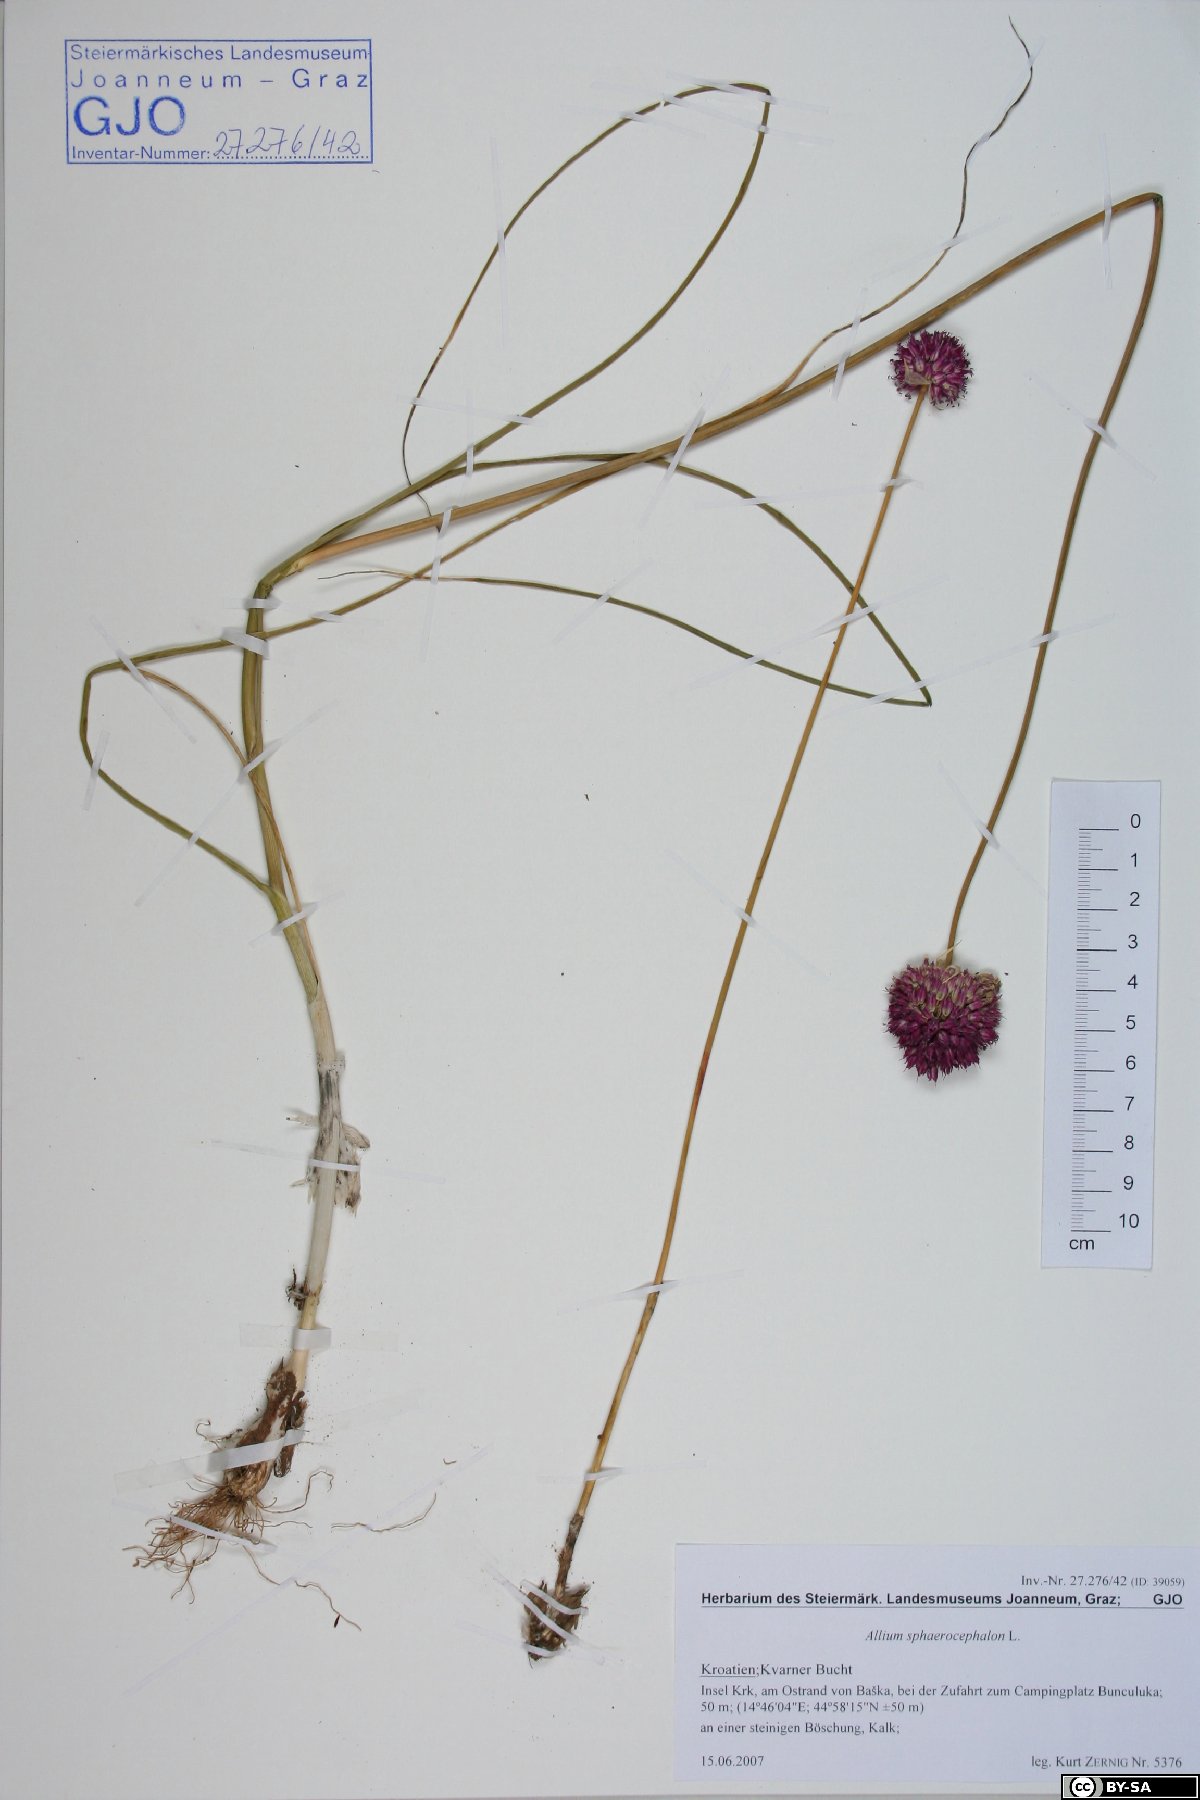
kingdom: Plantae
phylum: Tracheophyta
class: Liliopsida
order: Asparagales
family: Amaryllidaceae
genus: Allium
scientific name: Allium sphaerocephalon
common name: Round-headed leek
